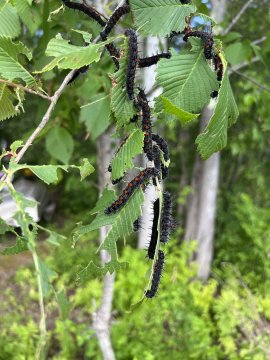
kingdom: Animalia
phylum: Arthropoda
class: Insecta
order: Lepidoptera
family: Nymphalidae
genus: Nymphalis
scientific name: Nymphalis antiopa
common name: Mourning Cloak
